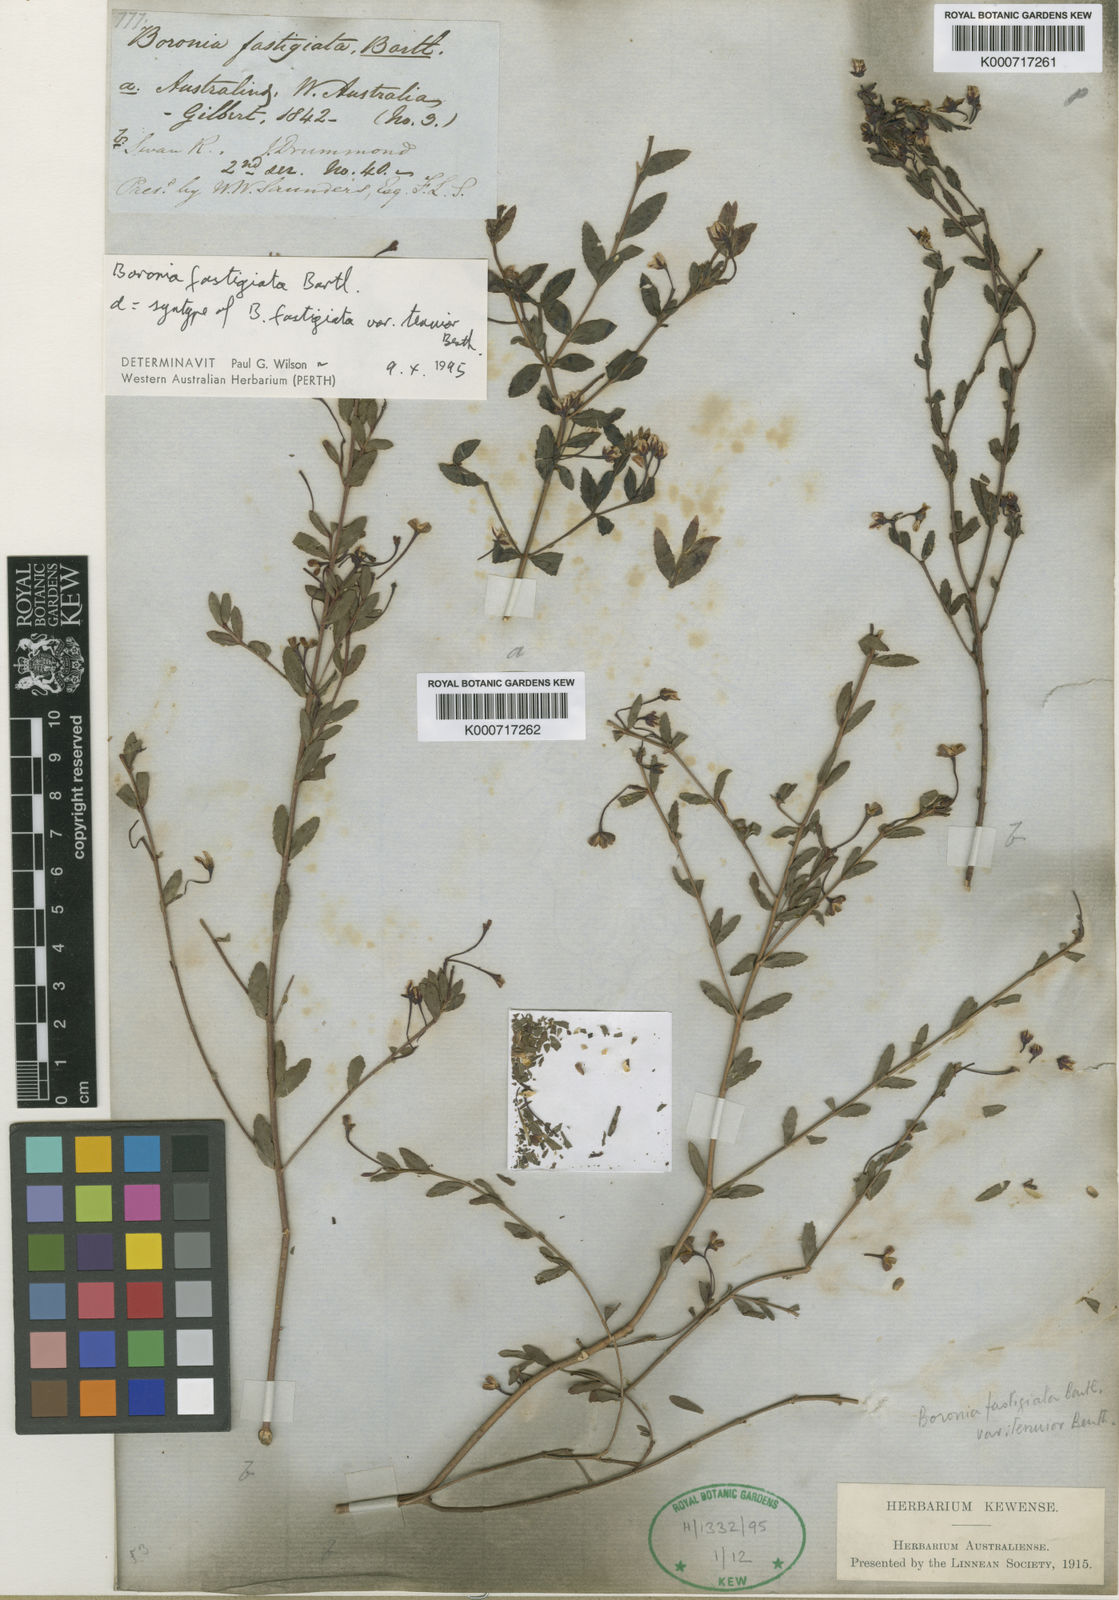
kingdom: Plantae
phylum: Tracheophyta
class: Magnoliopsida
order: Sapindales
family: Rutaceae
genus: Boronia
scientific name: Boronia fastigiata
